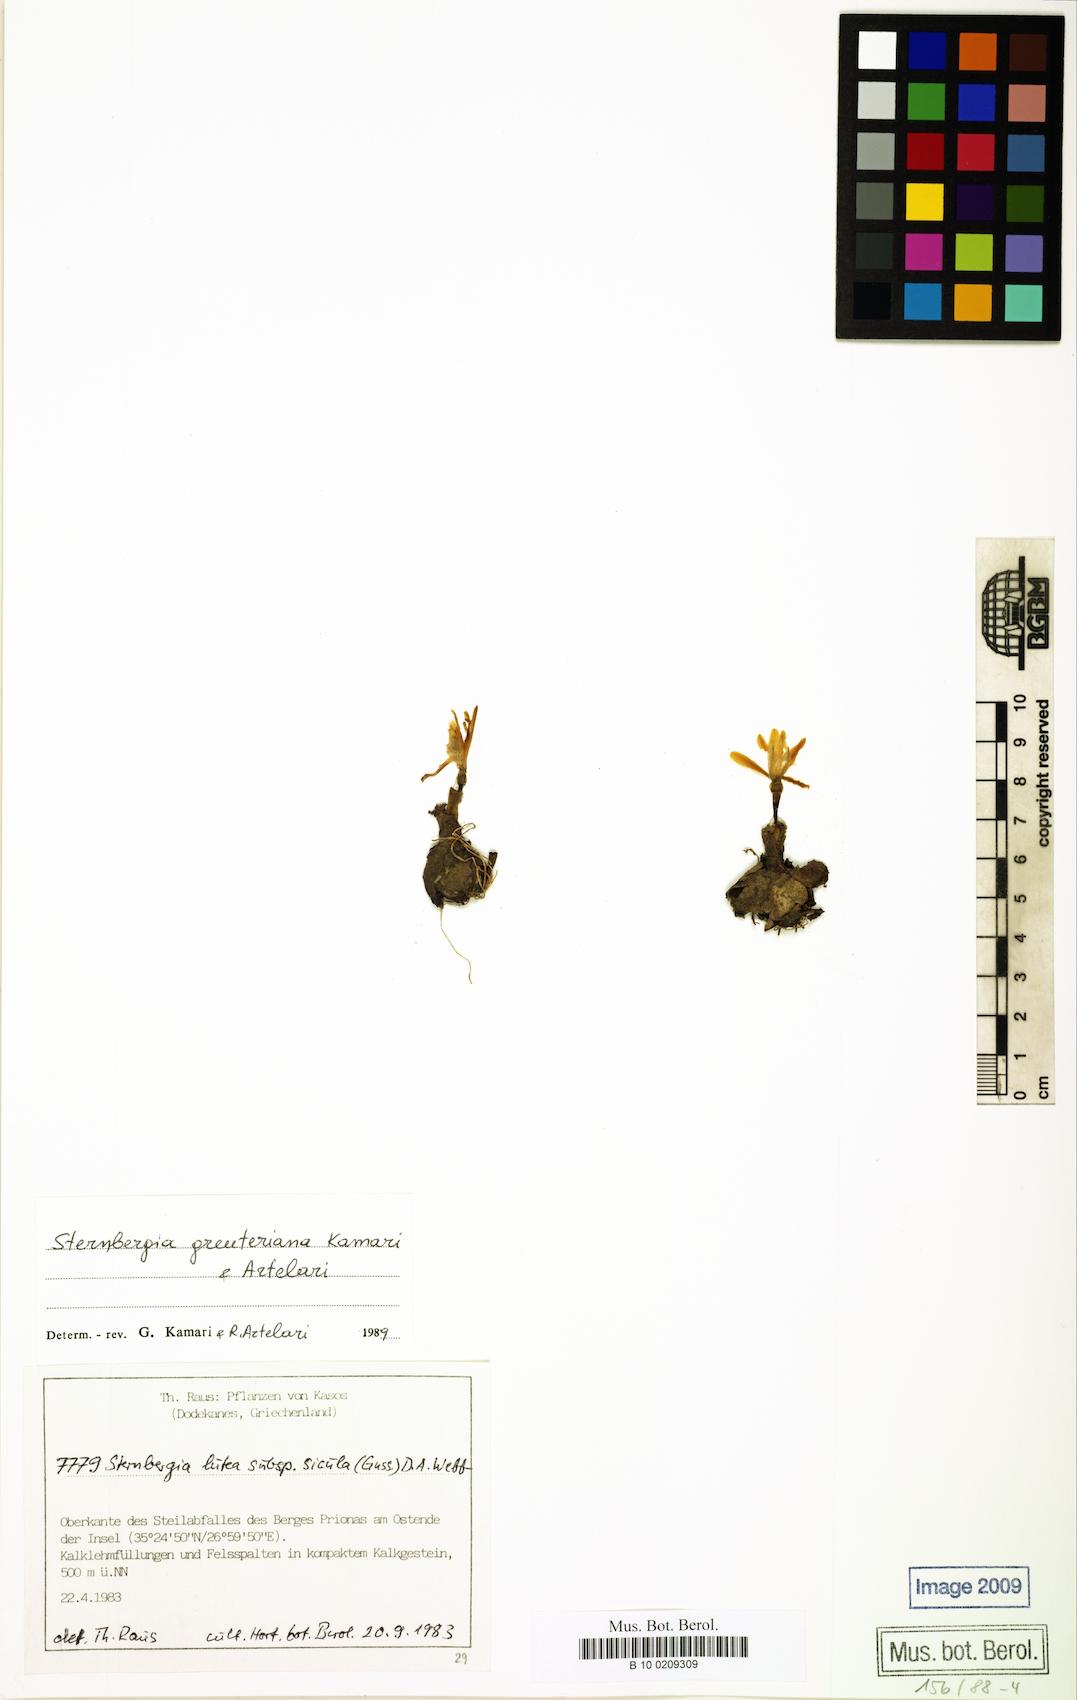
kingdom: Plantae
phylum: Tracheophyta
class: Liliopsida
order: Asparagales
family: Amaryllidaceae
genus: Sternbergia
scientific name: Sternbergia lutea
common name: Winter daffodil
